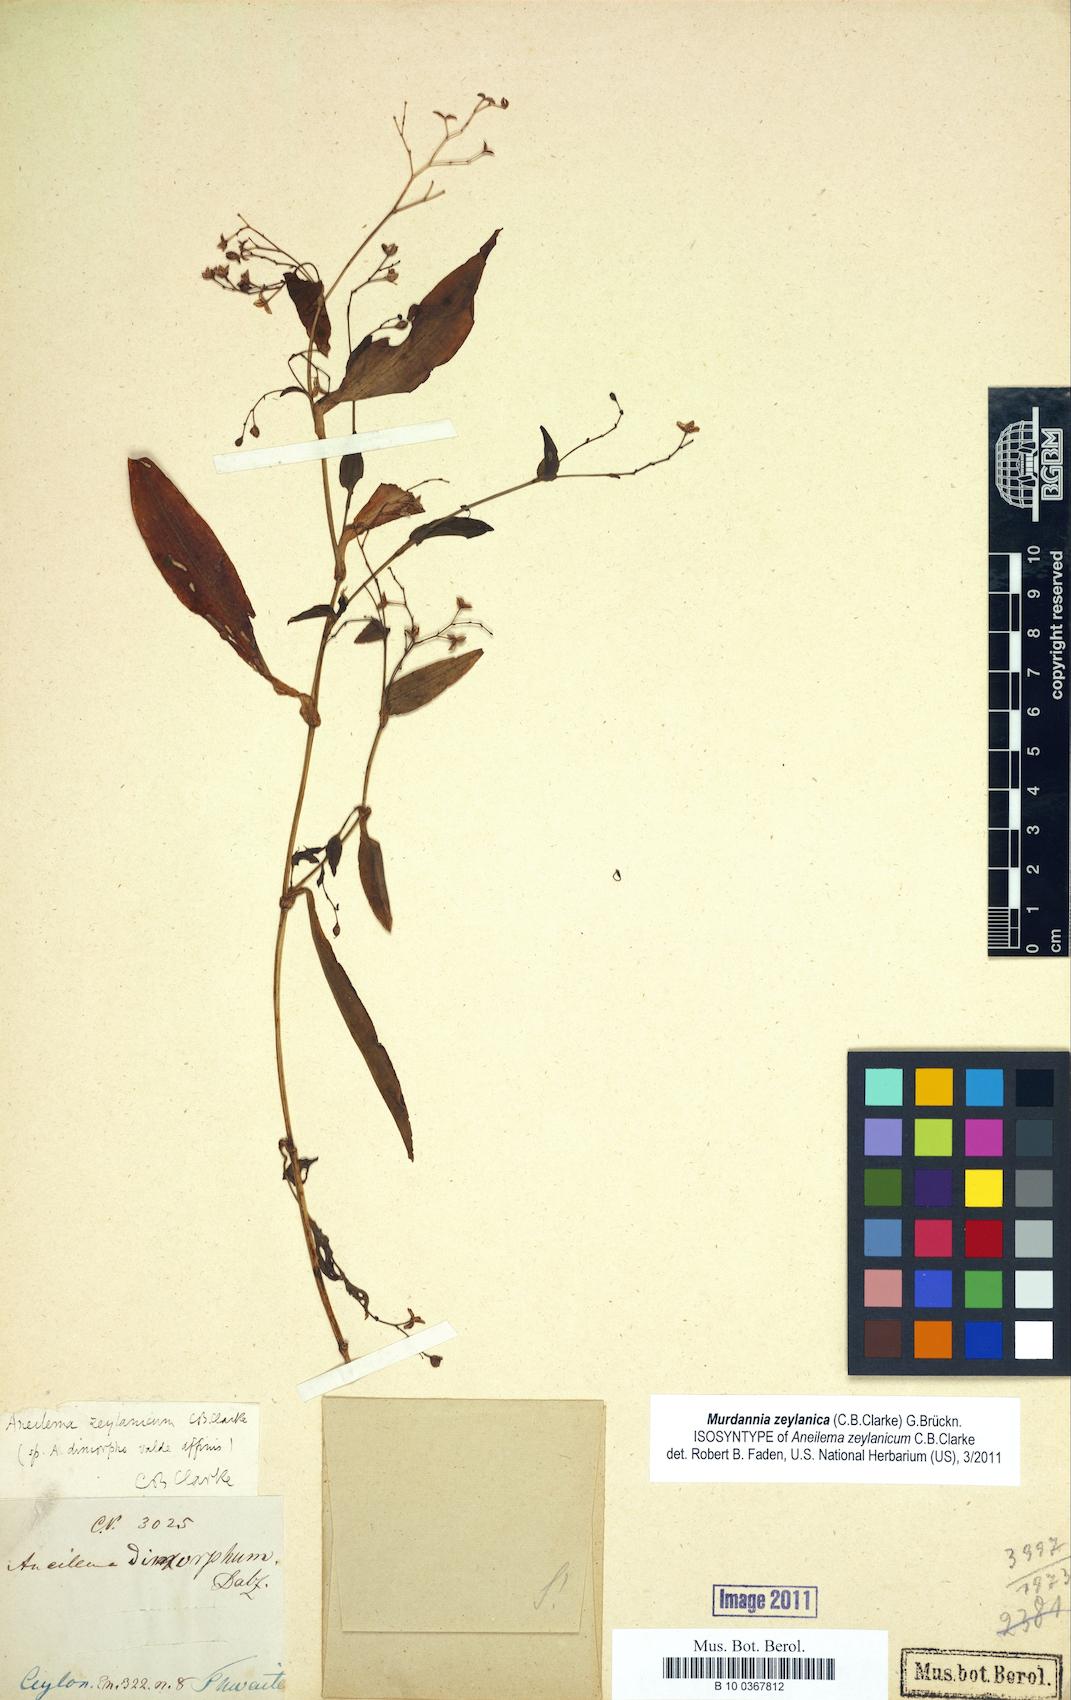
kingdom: Plantae
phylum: Tracheophyta
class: Liliopsida
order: Commelinales
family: Commelinaceae
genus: Murdannia
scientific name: Murdannia zeylanica
